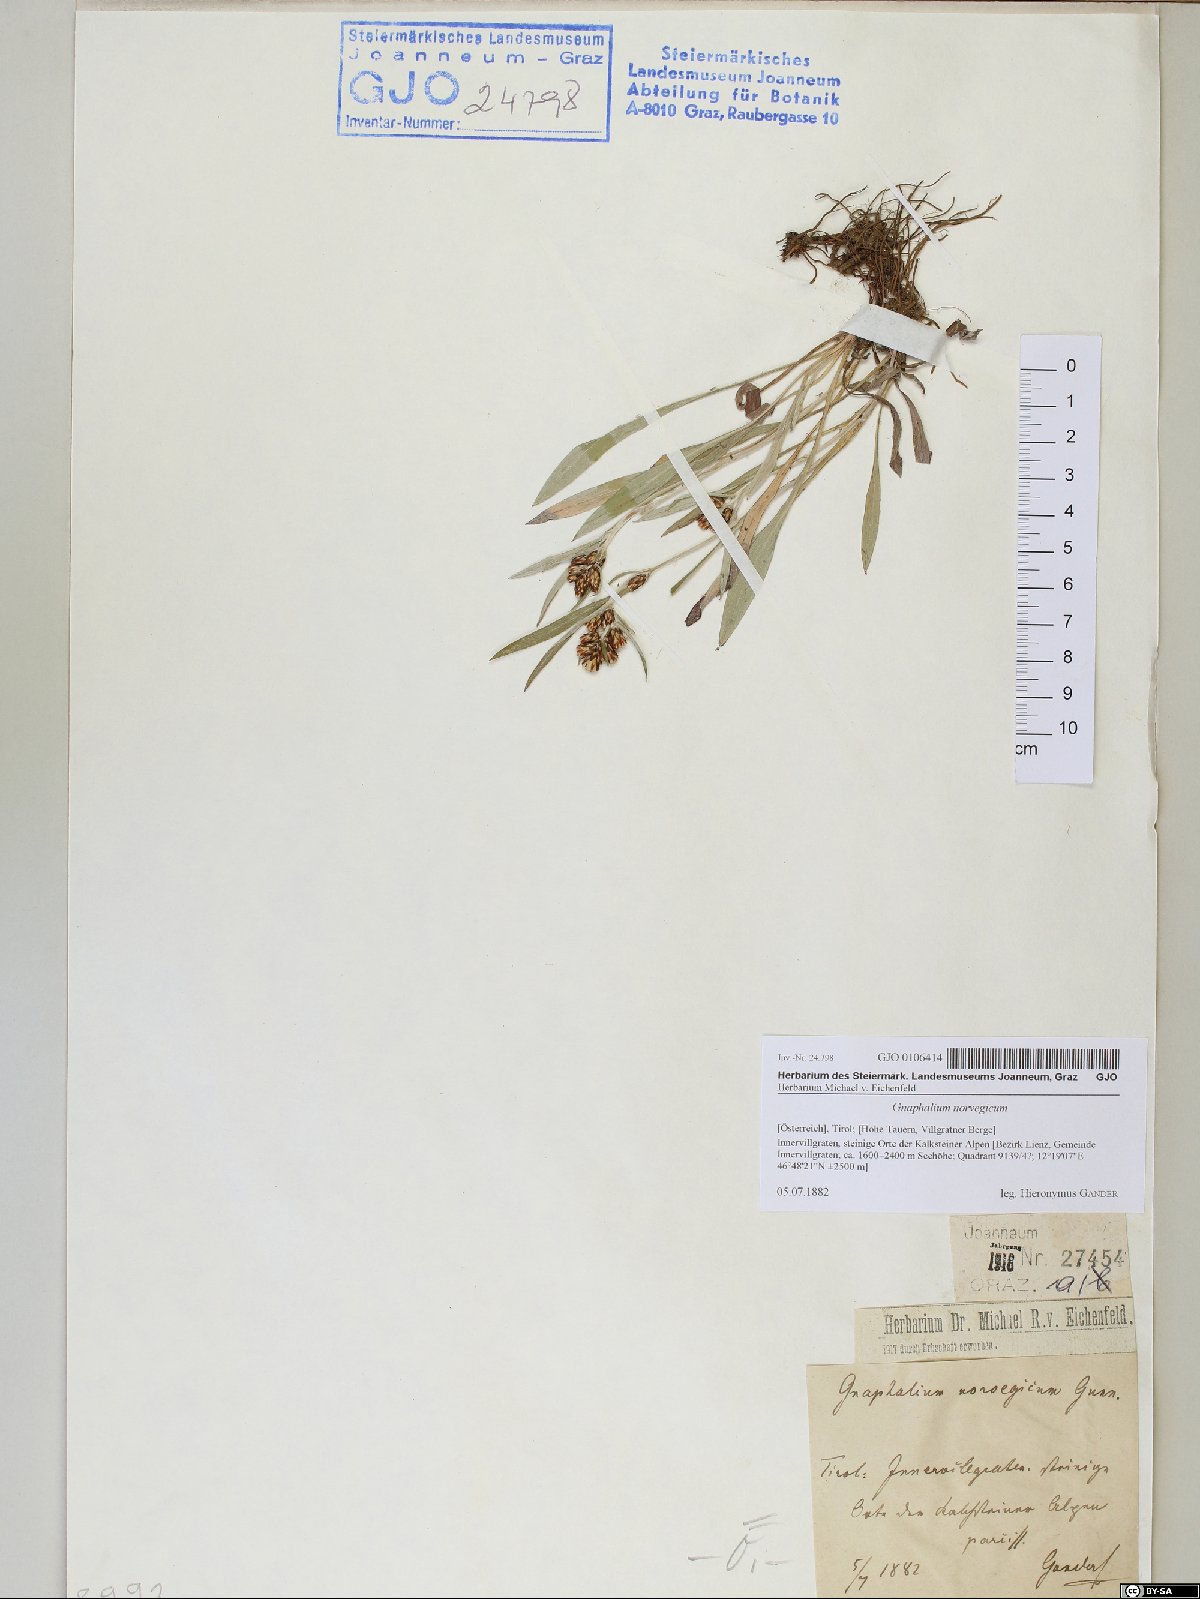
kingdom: Plantae
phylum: Tracheophyta
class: Magnoliopsida
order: Asterales
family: Asteraceae
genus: Omalotheca
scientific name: Omalotheca norvegica
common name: Norwegian arctic-cudweed
